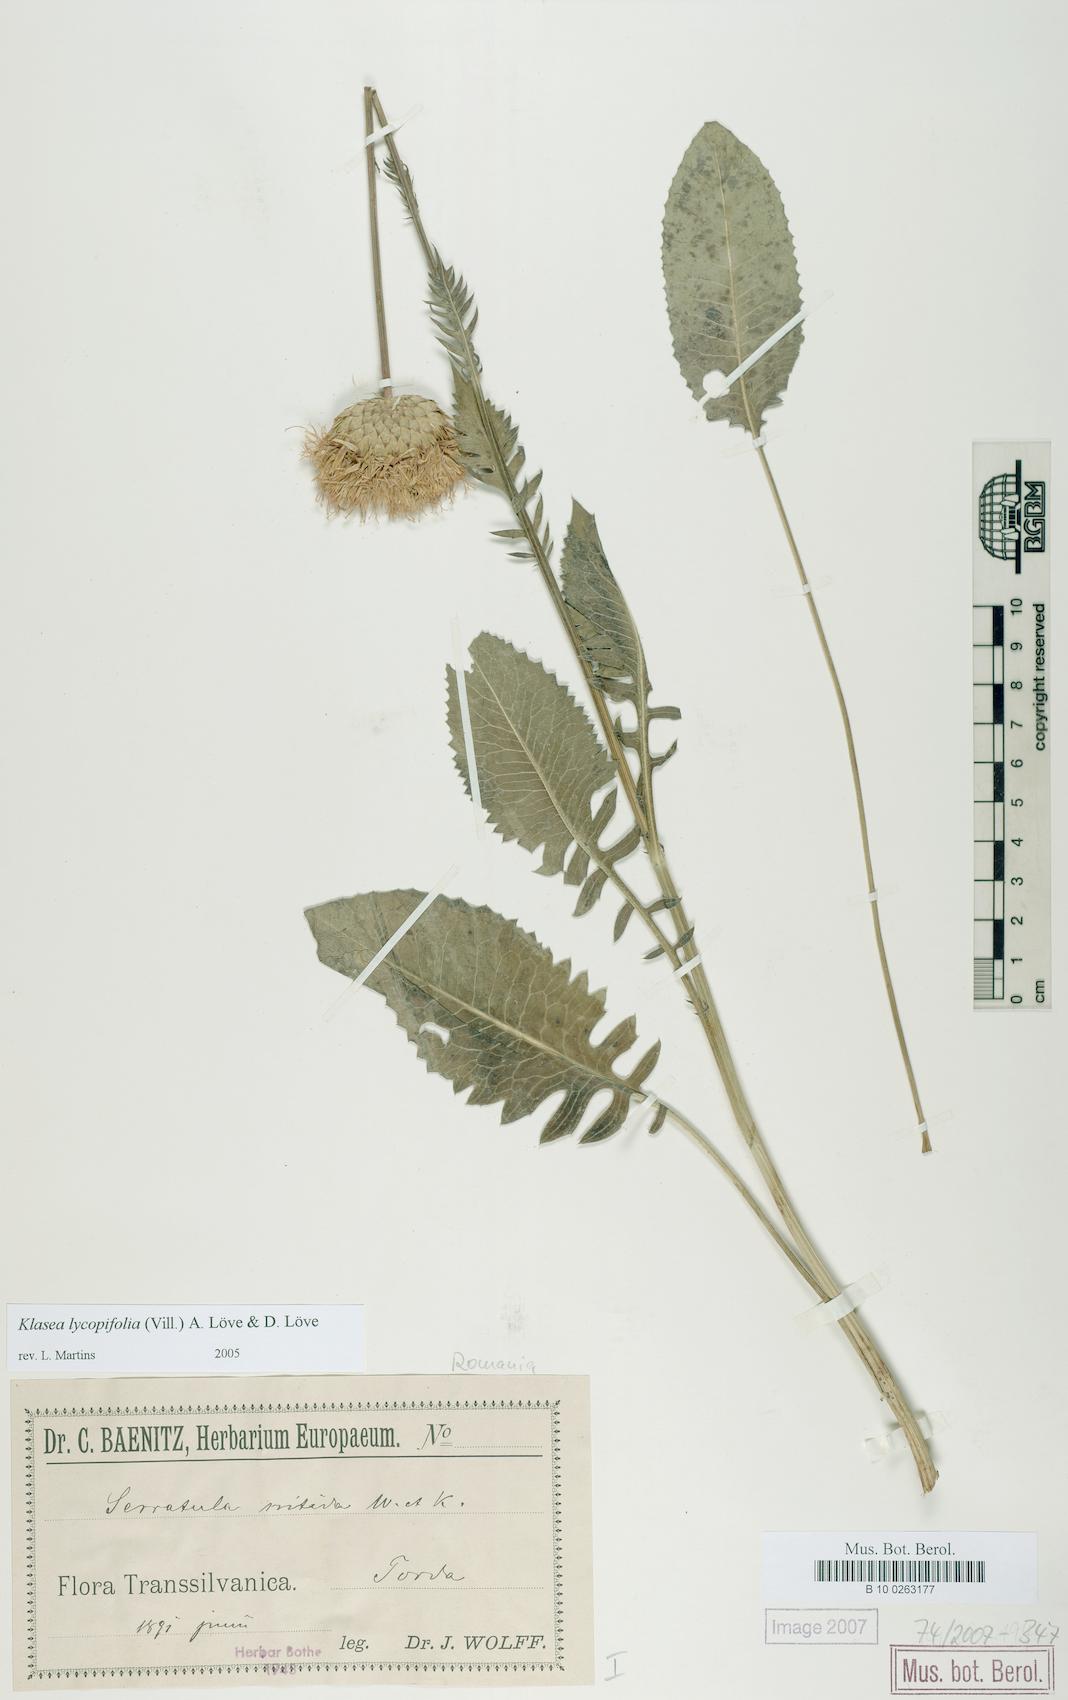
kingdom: Plantae
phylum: Tracheophyta
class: Magnoliopsida
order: Asterales
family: Asteraceae
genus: Klasea
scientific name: Klasea lycopifolia
